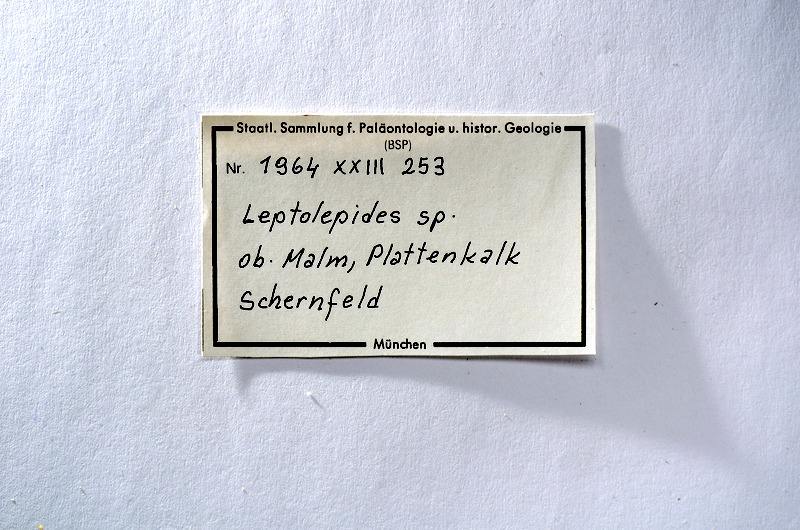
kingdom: Animalia
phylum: Chordata
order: Salmoniformes
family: Orthogonikleithridae
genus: Leptolepides
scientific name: Leptolepides
